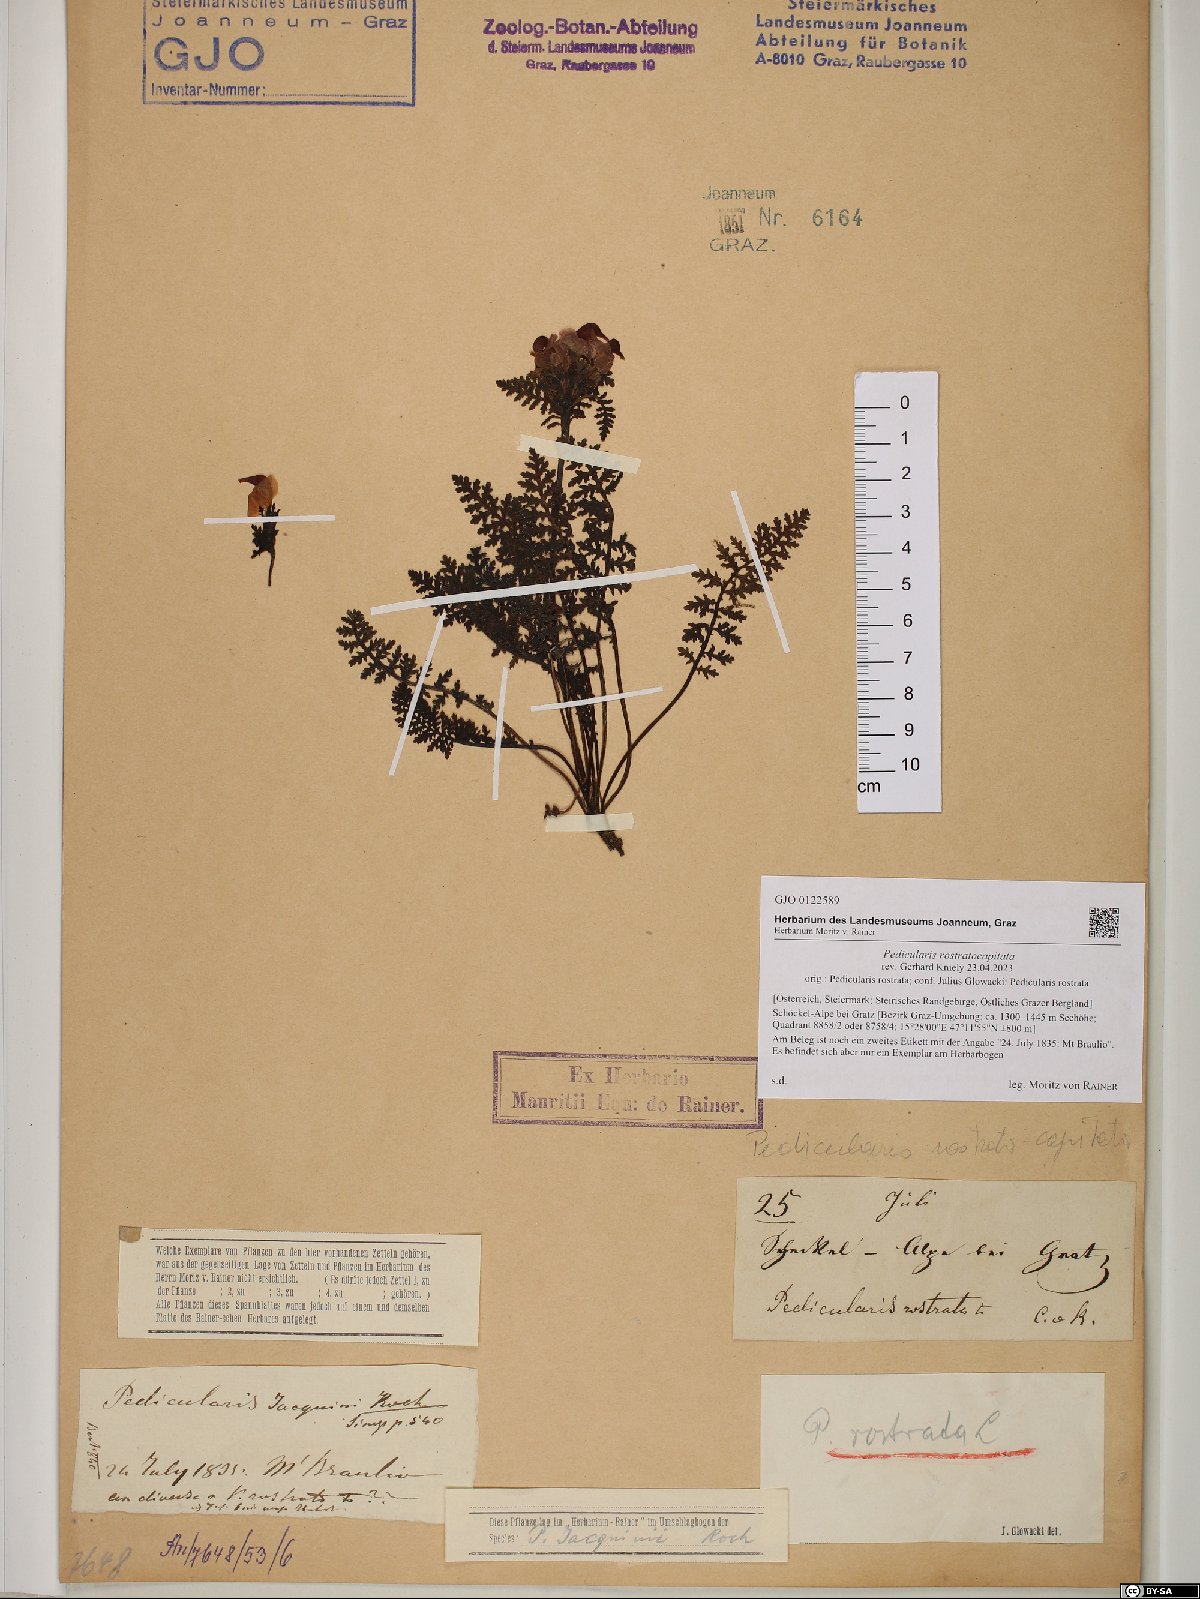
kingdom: Plantae
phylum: Tracheophyta
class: Magnoliopsida
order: Lamiales
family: Orobanchaceae
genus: Pedicularis
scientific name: Pedicularis rostratocapitata
